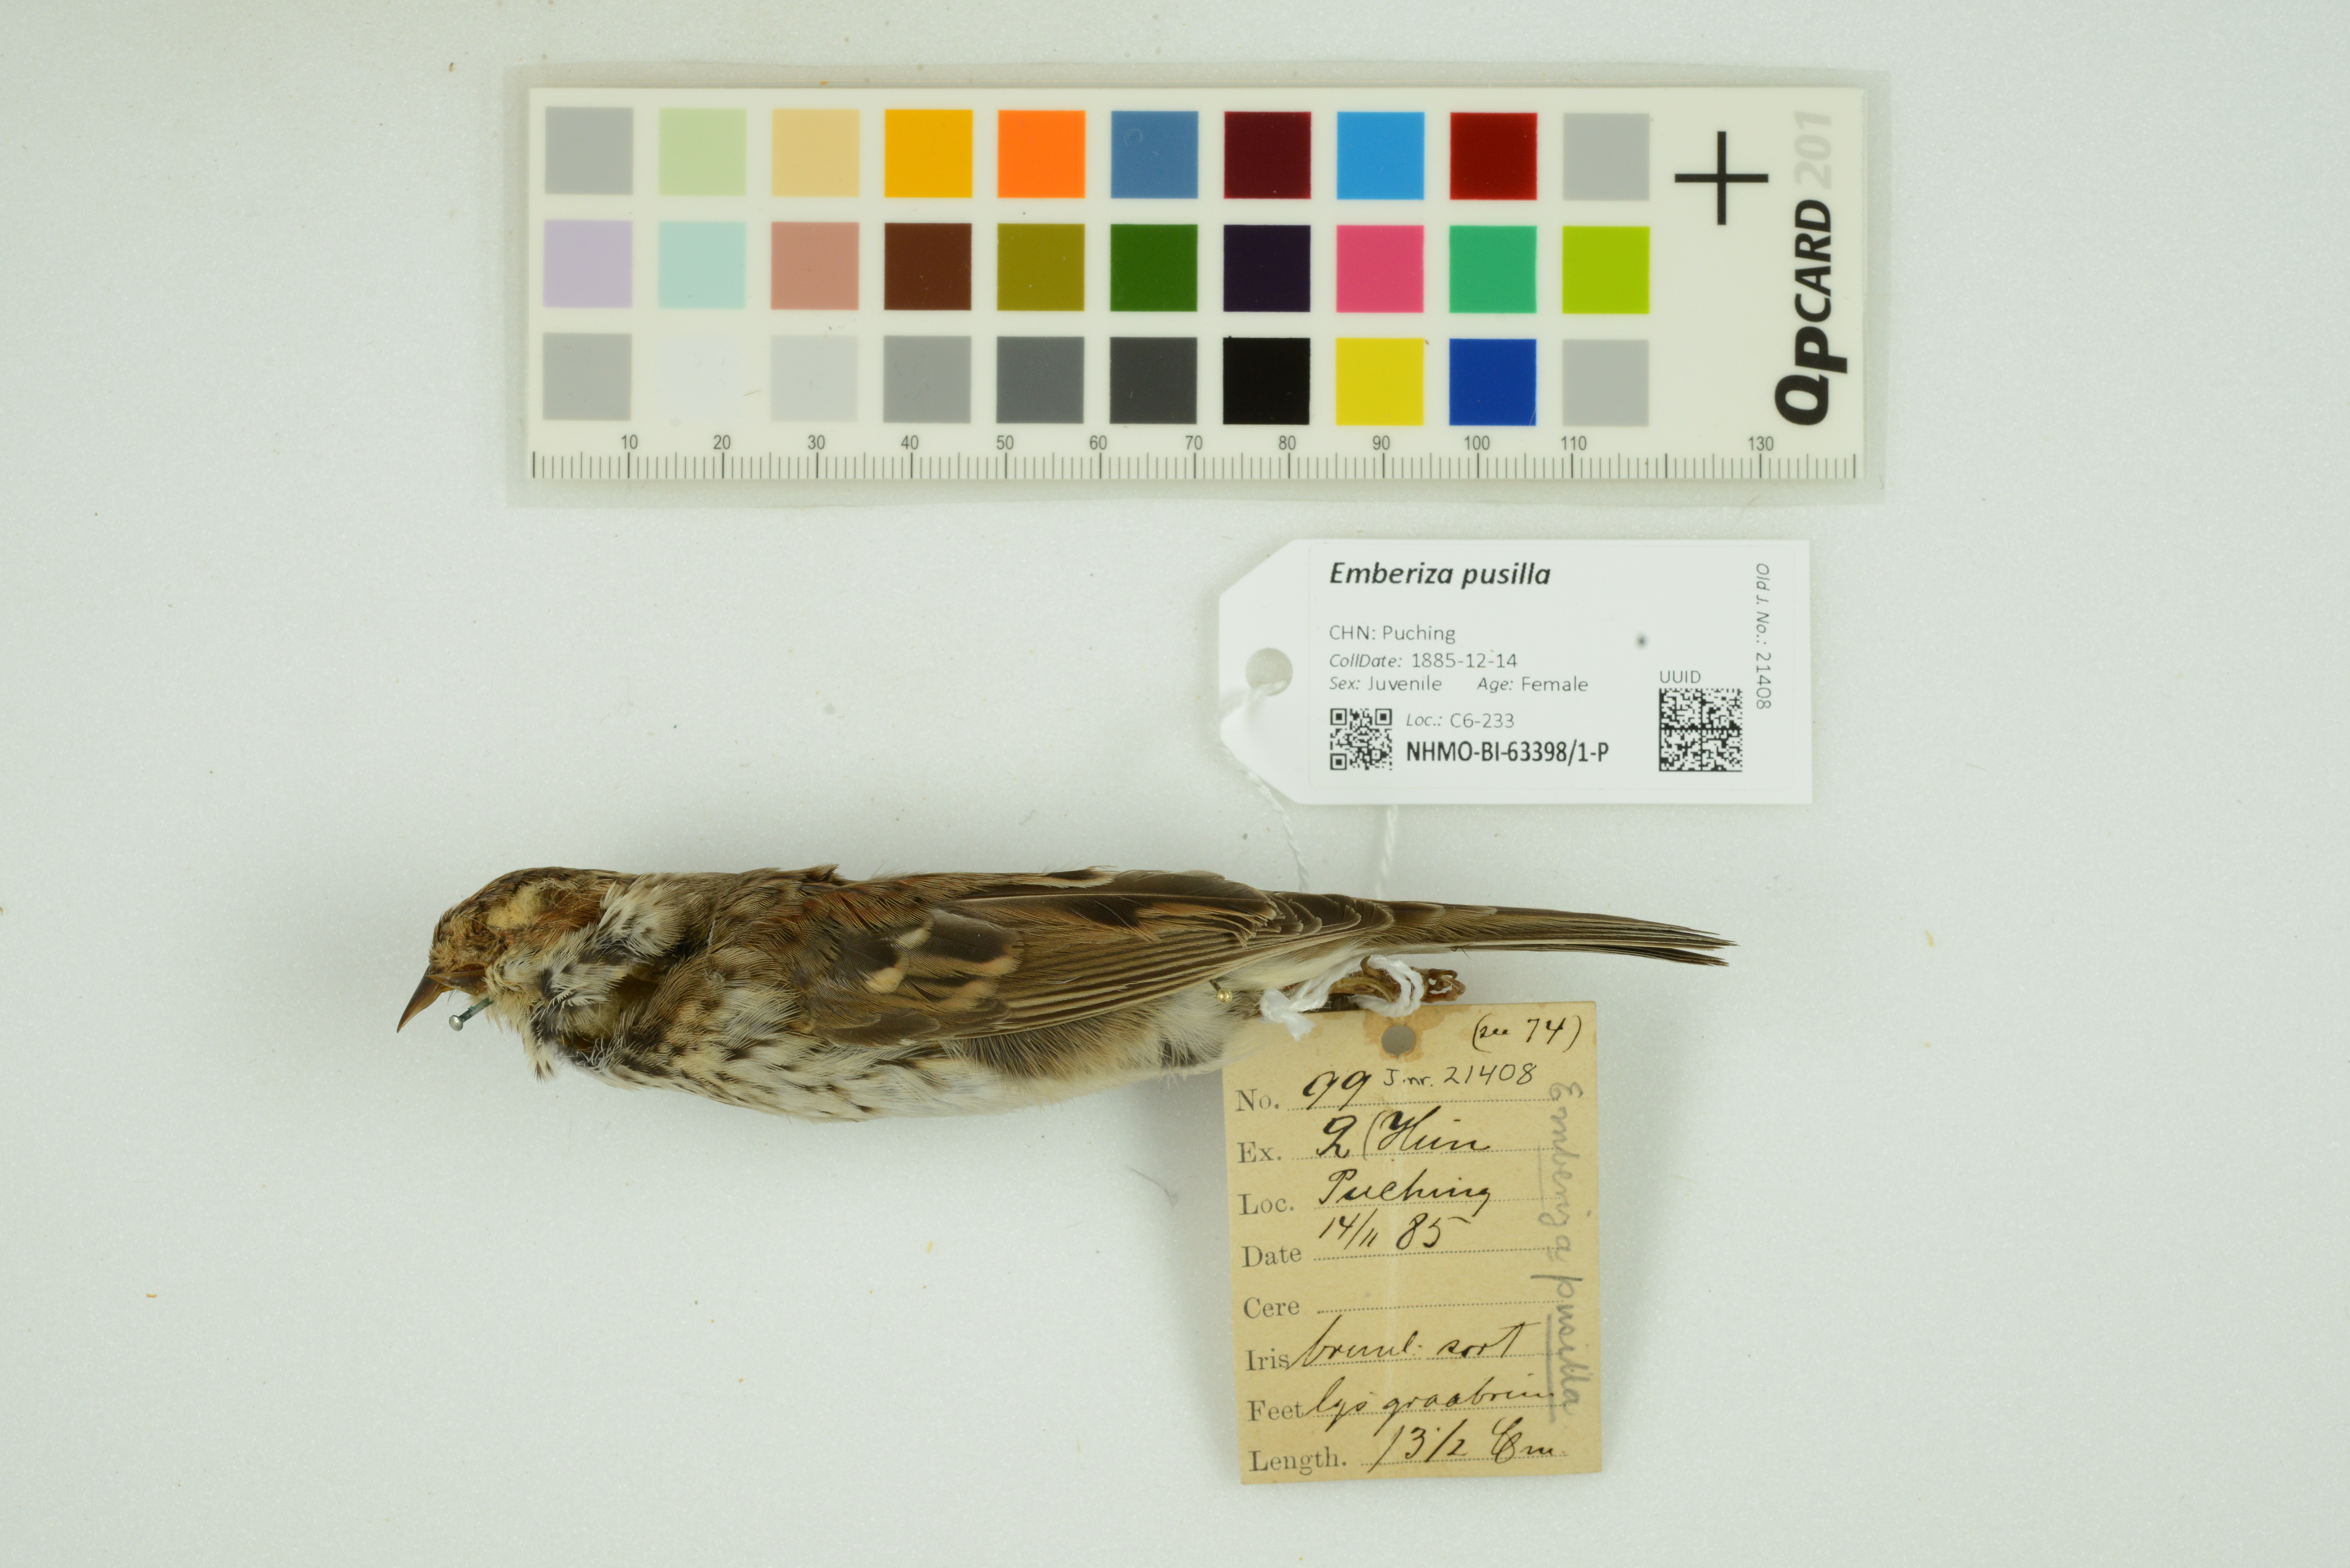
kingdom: Animalia
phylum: Chordata
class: Aves
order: Passeriformes
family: Emberizidae
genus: Emberiza
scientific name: Emberiza pusilla
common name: Little bunting
